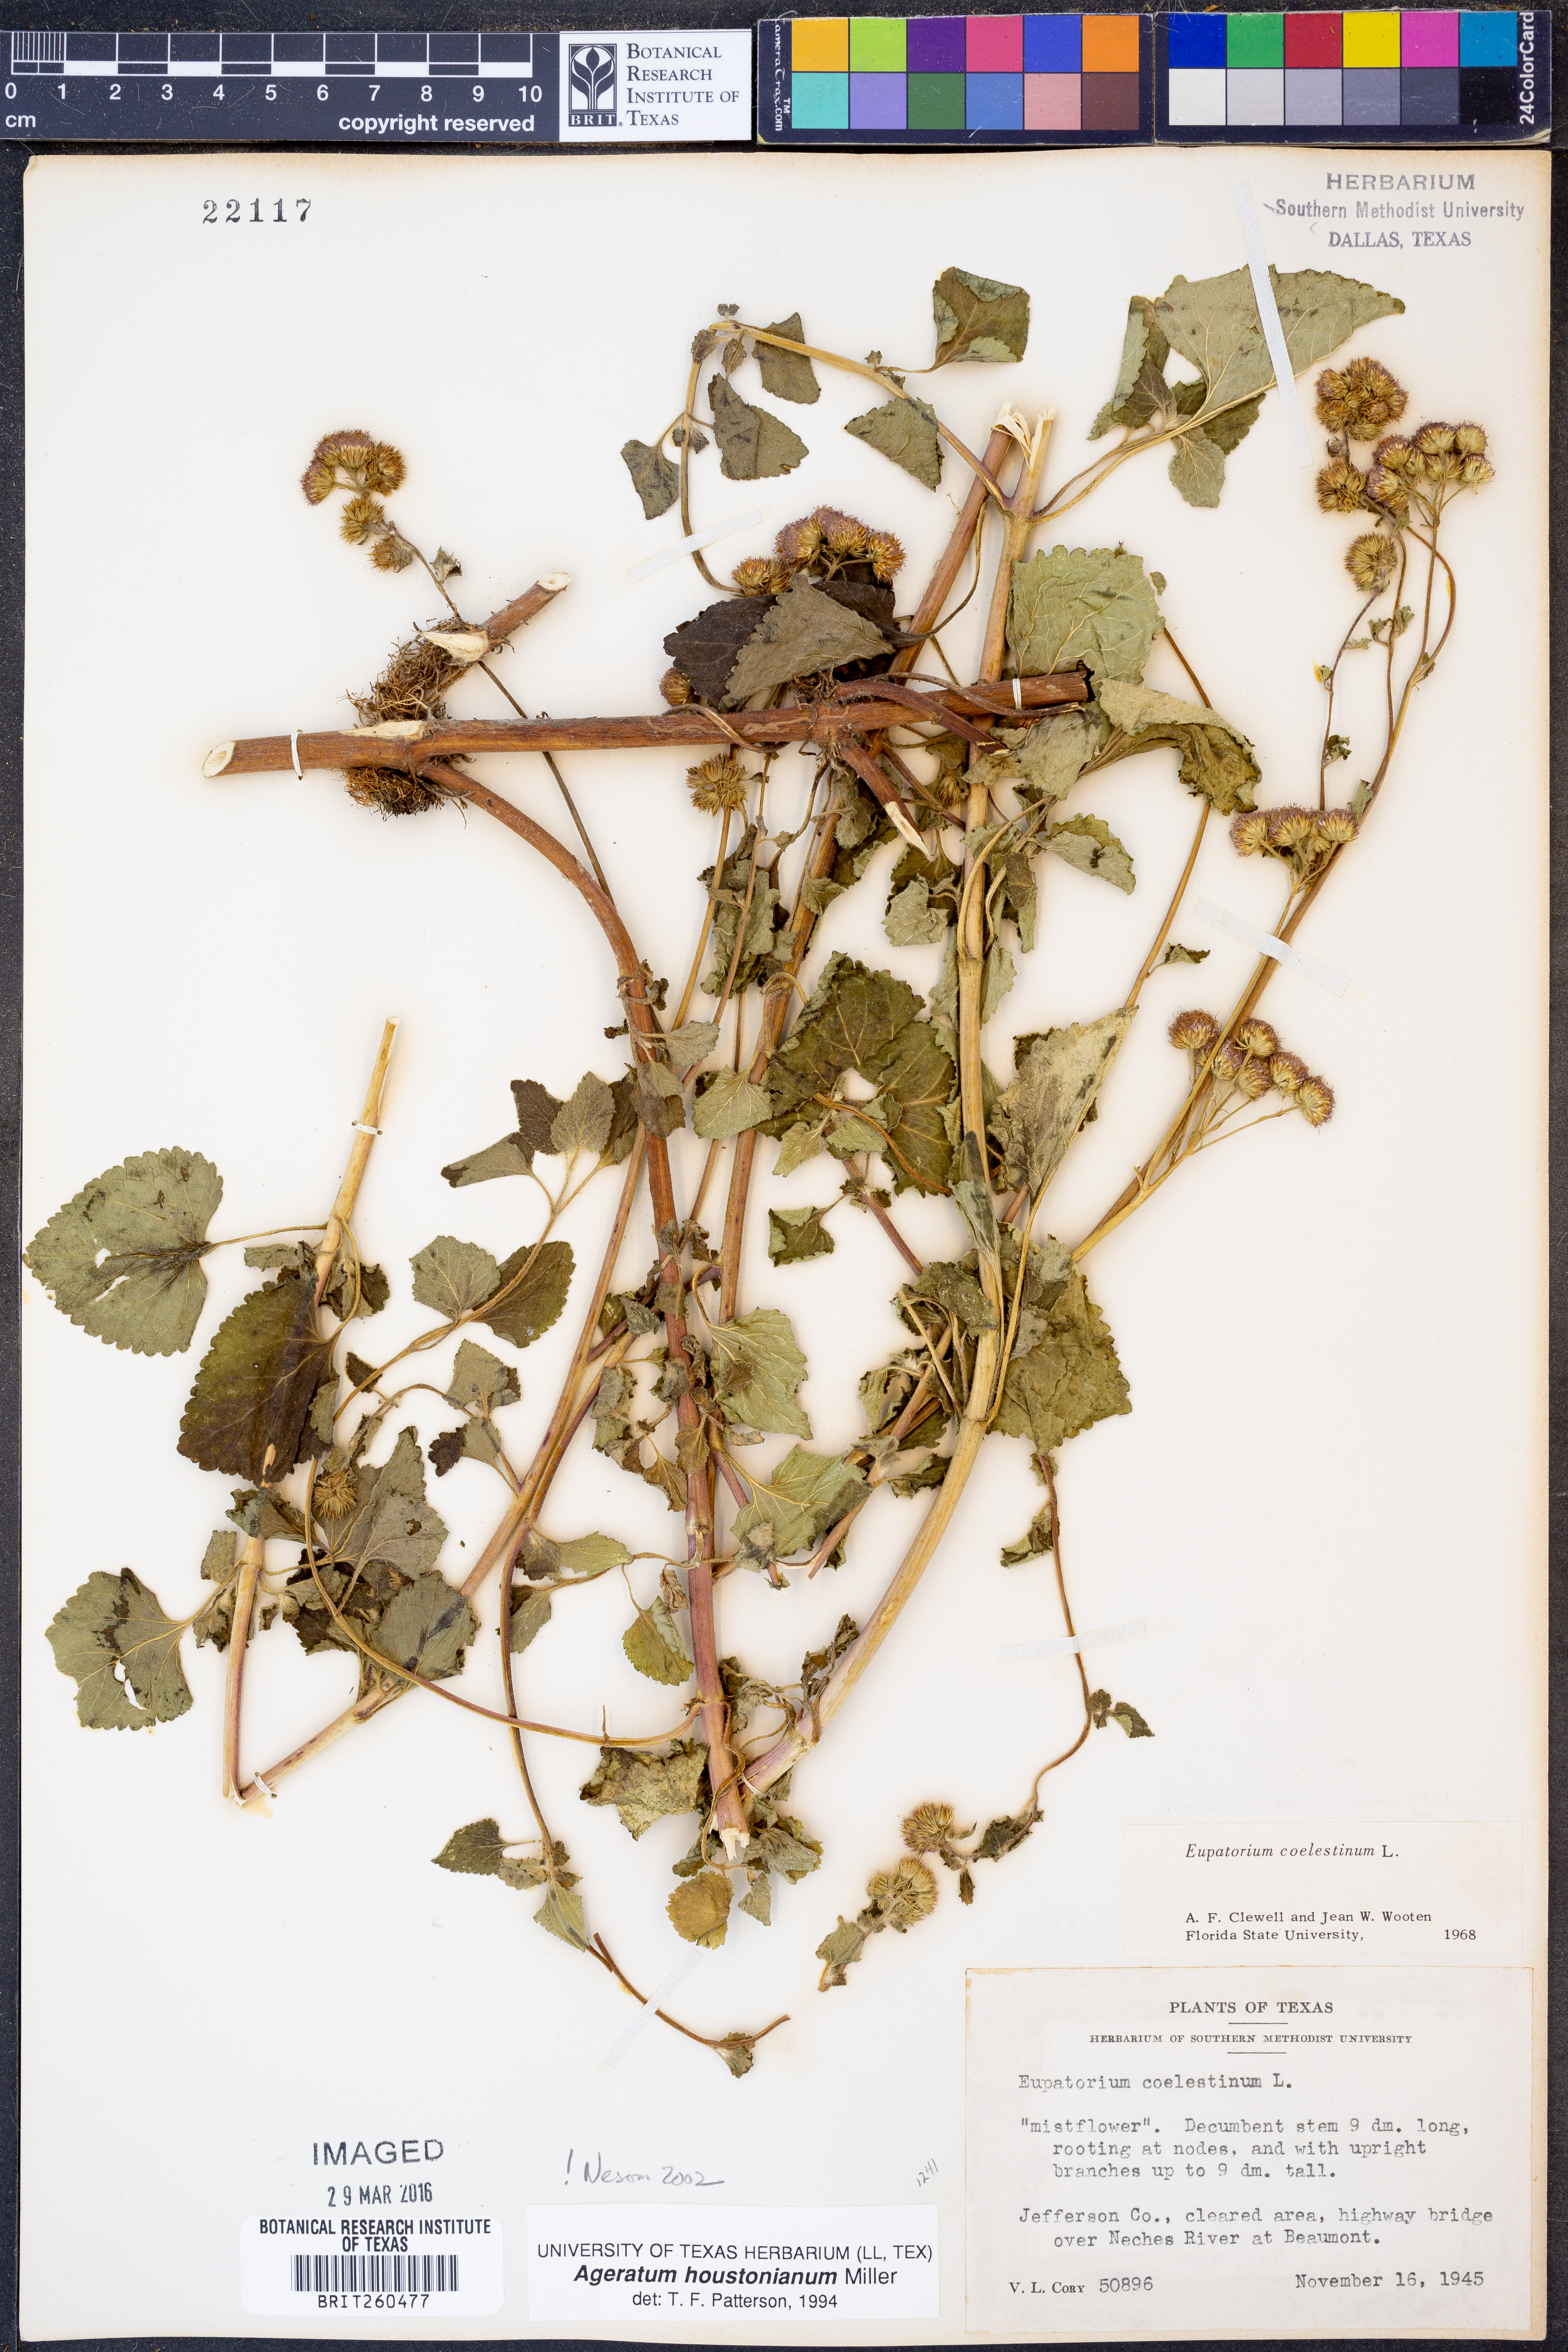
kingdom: Plantae
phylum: Tracheophyta
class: Magnoliopsida
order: Asterales
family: Asteraceae
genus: Ageratum
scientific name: Ageratum houstonianum
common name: Bluemink
